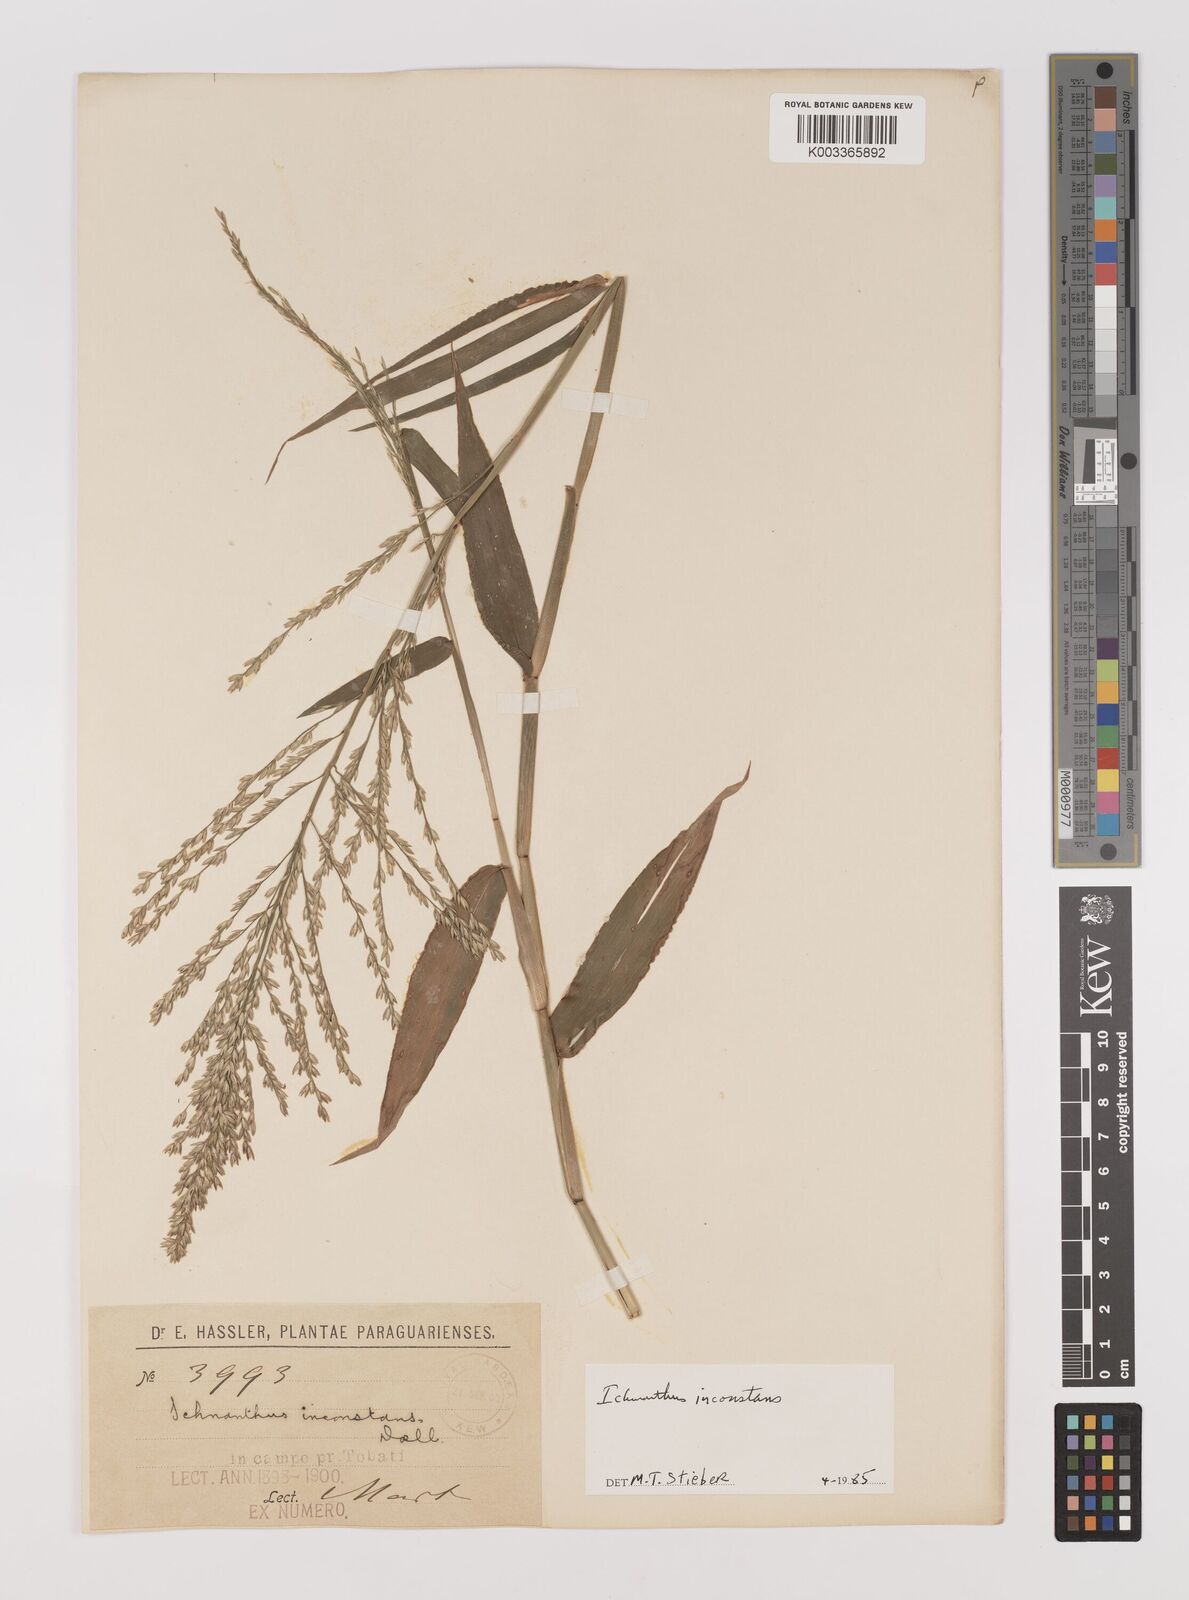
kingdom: Plantae
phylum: Tracheophyta
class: Liliopsida
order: Poales
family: Poaceae
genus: Ichnanthus
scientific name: Ichnanthus inconstans
